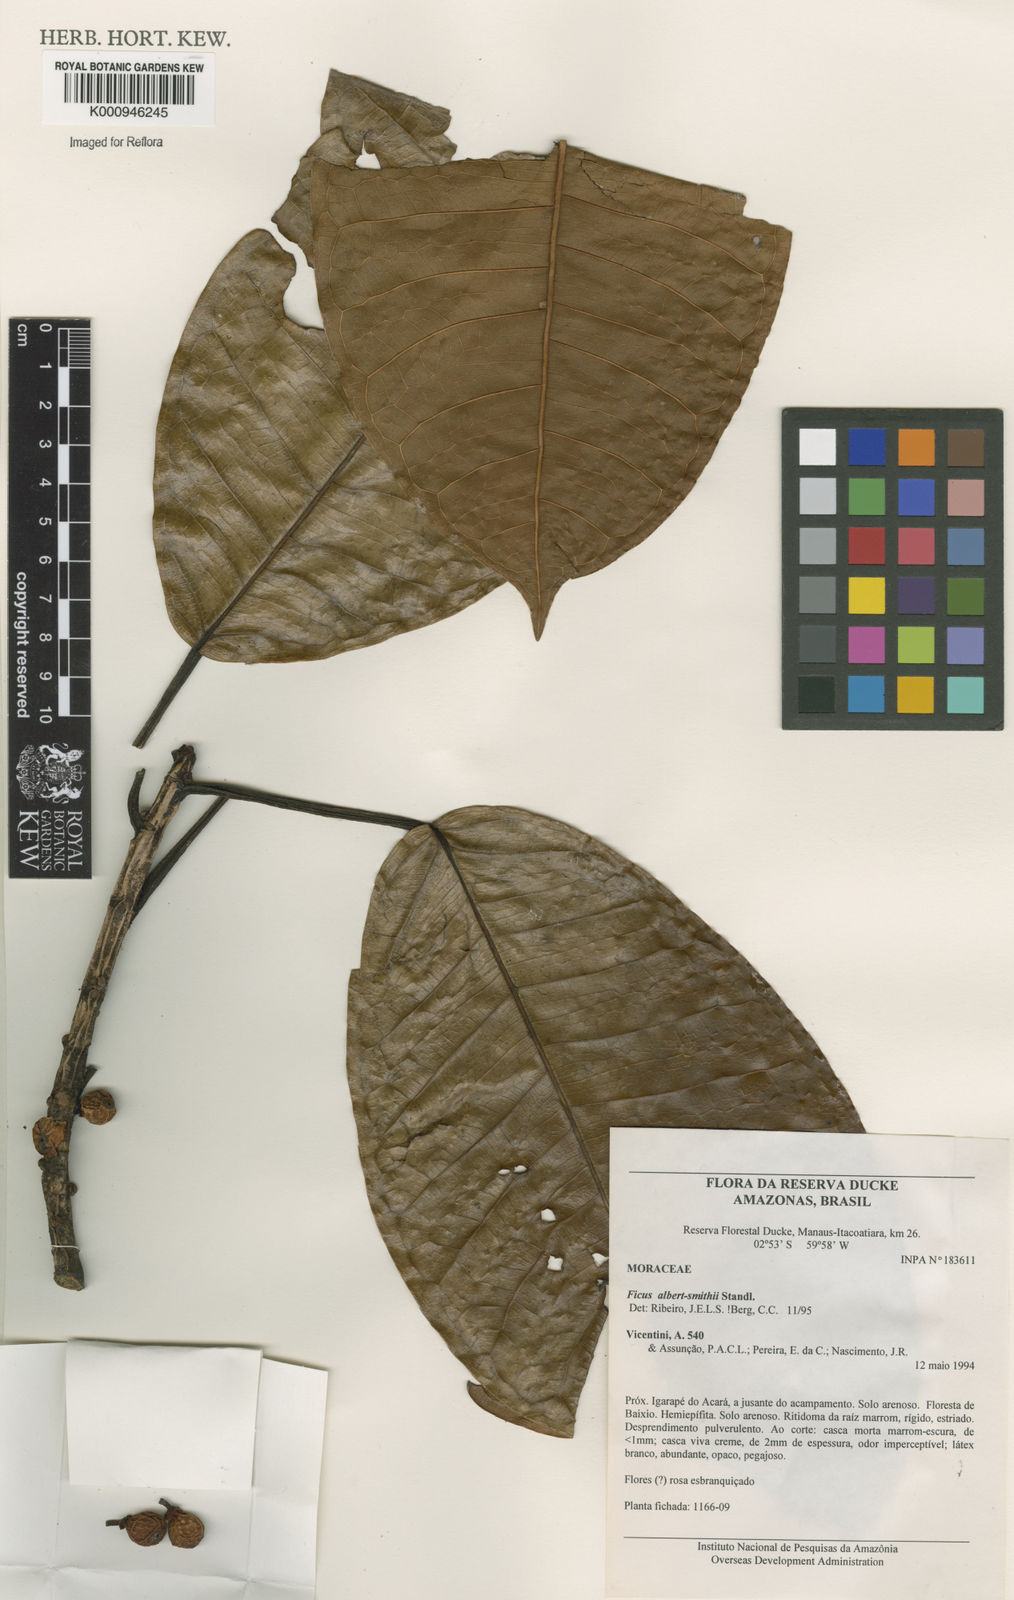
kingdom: Plantae
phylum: Tracheophyta
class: Magnoliopsida
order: Rosales
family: Moraceae
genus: Ficus
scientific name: Ficus albert-smithii
